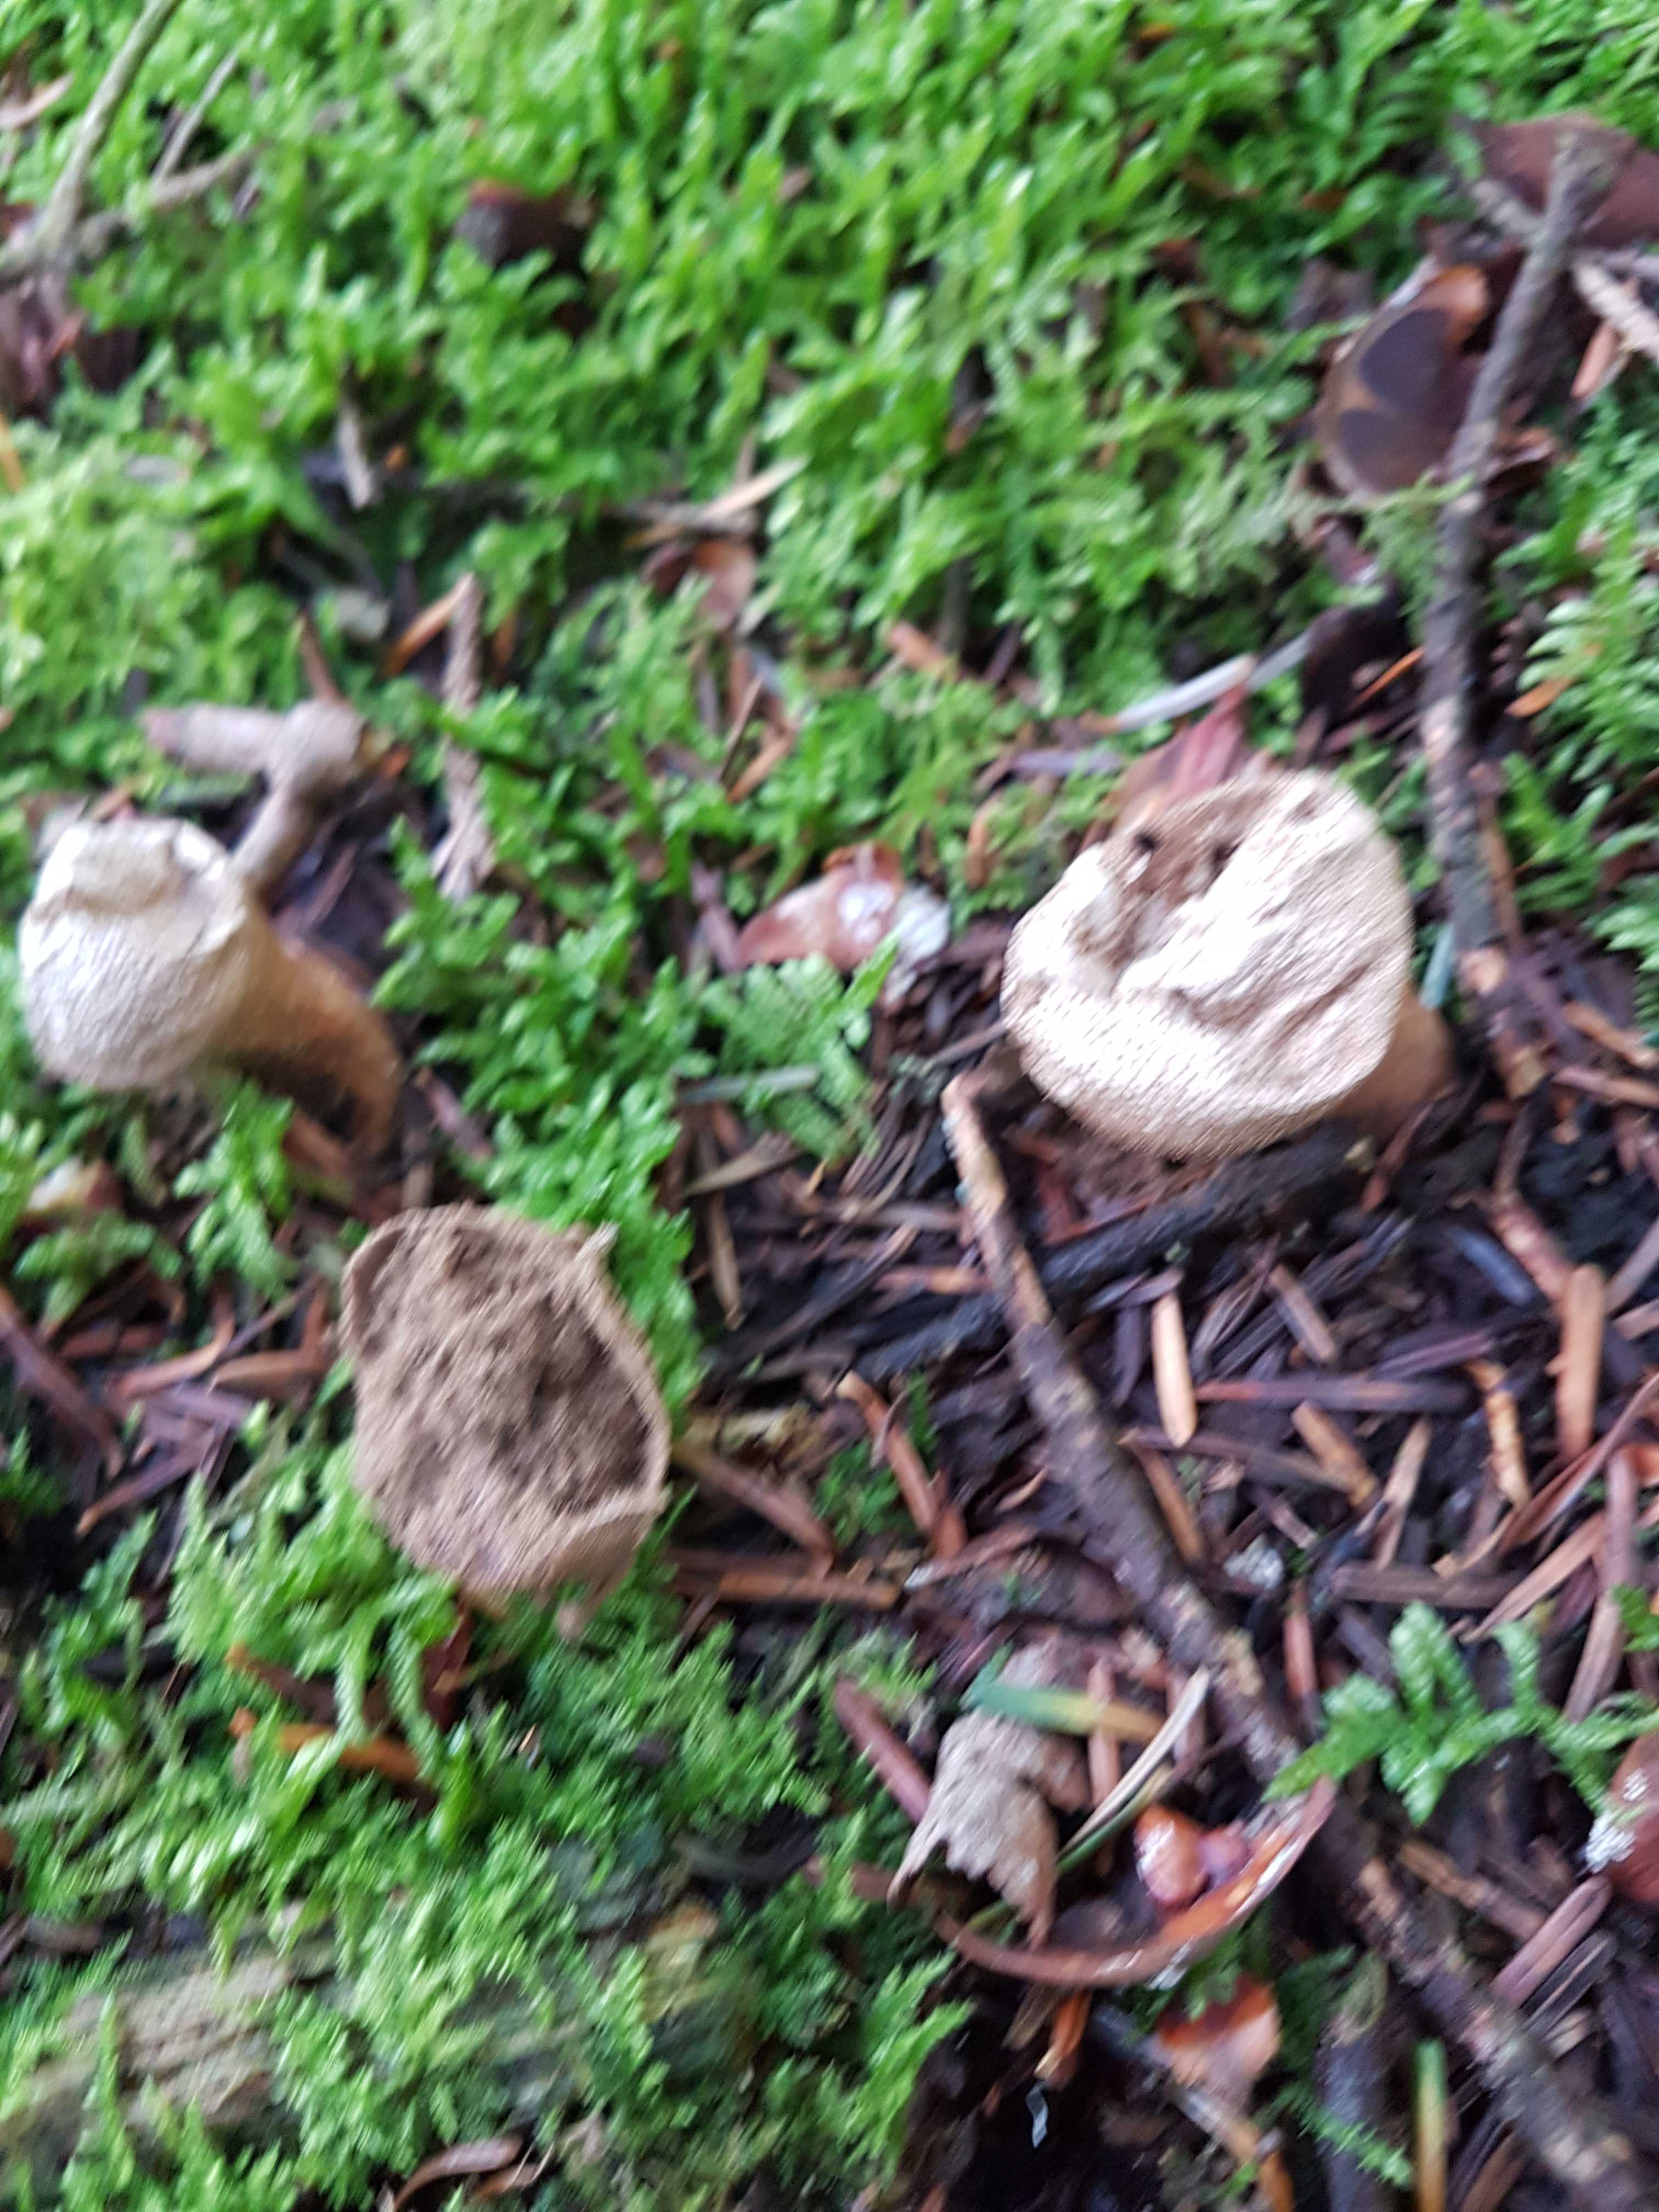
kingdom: Fungi
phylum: Basidiomycota
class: Agaricomycetes
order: Agaricales
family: Lycoperdaceae
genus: Lycoperdon
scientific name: Lycoperdon perlatum
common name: krystal-støvbold
